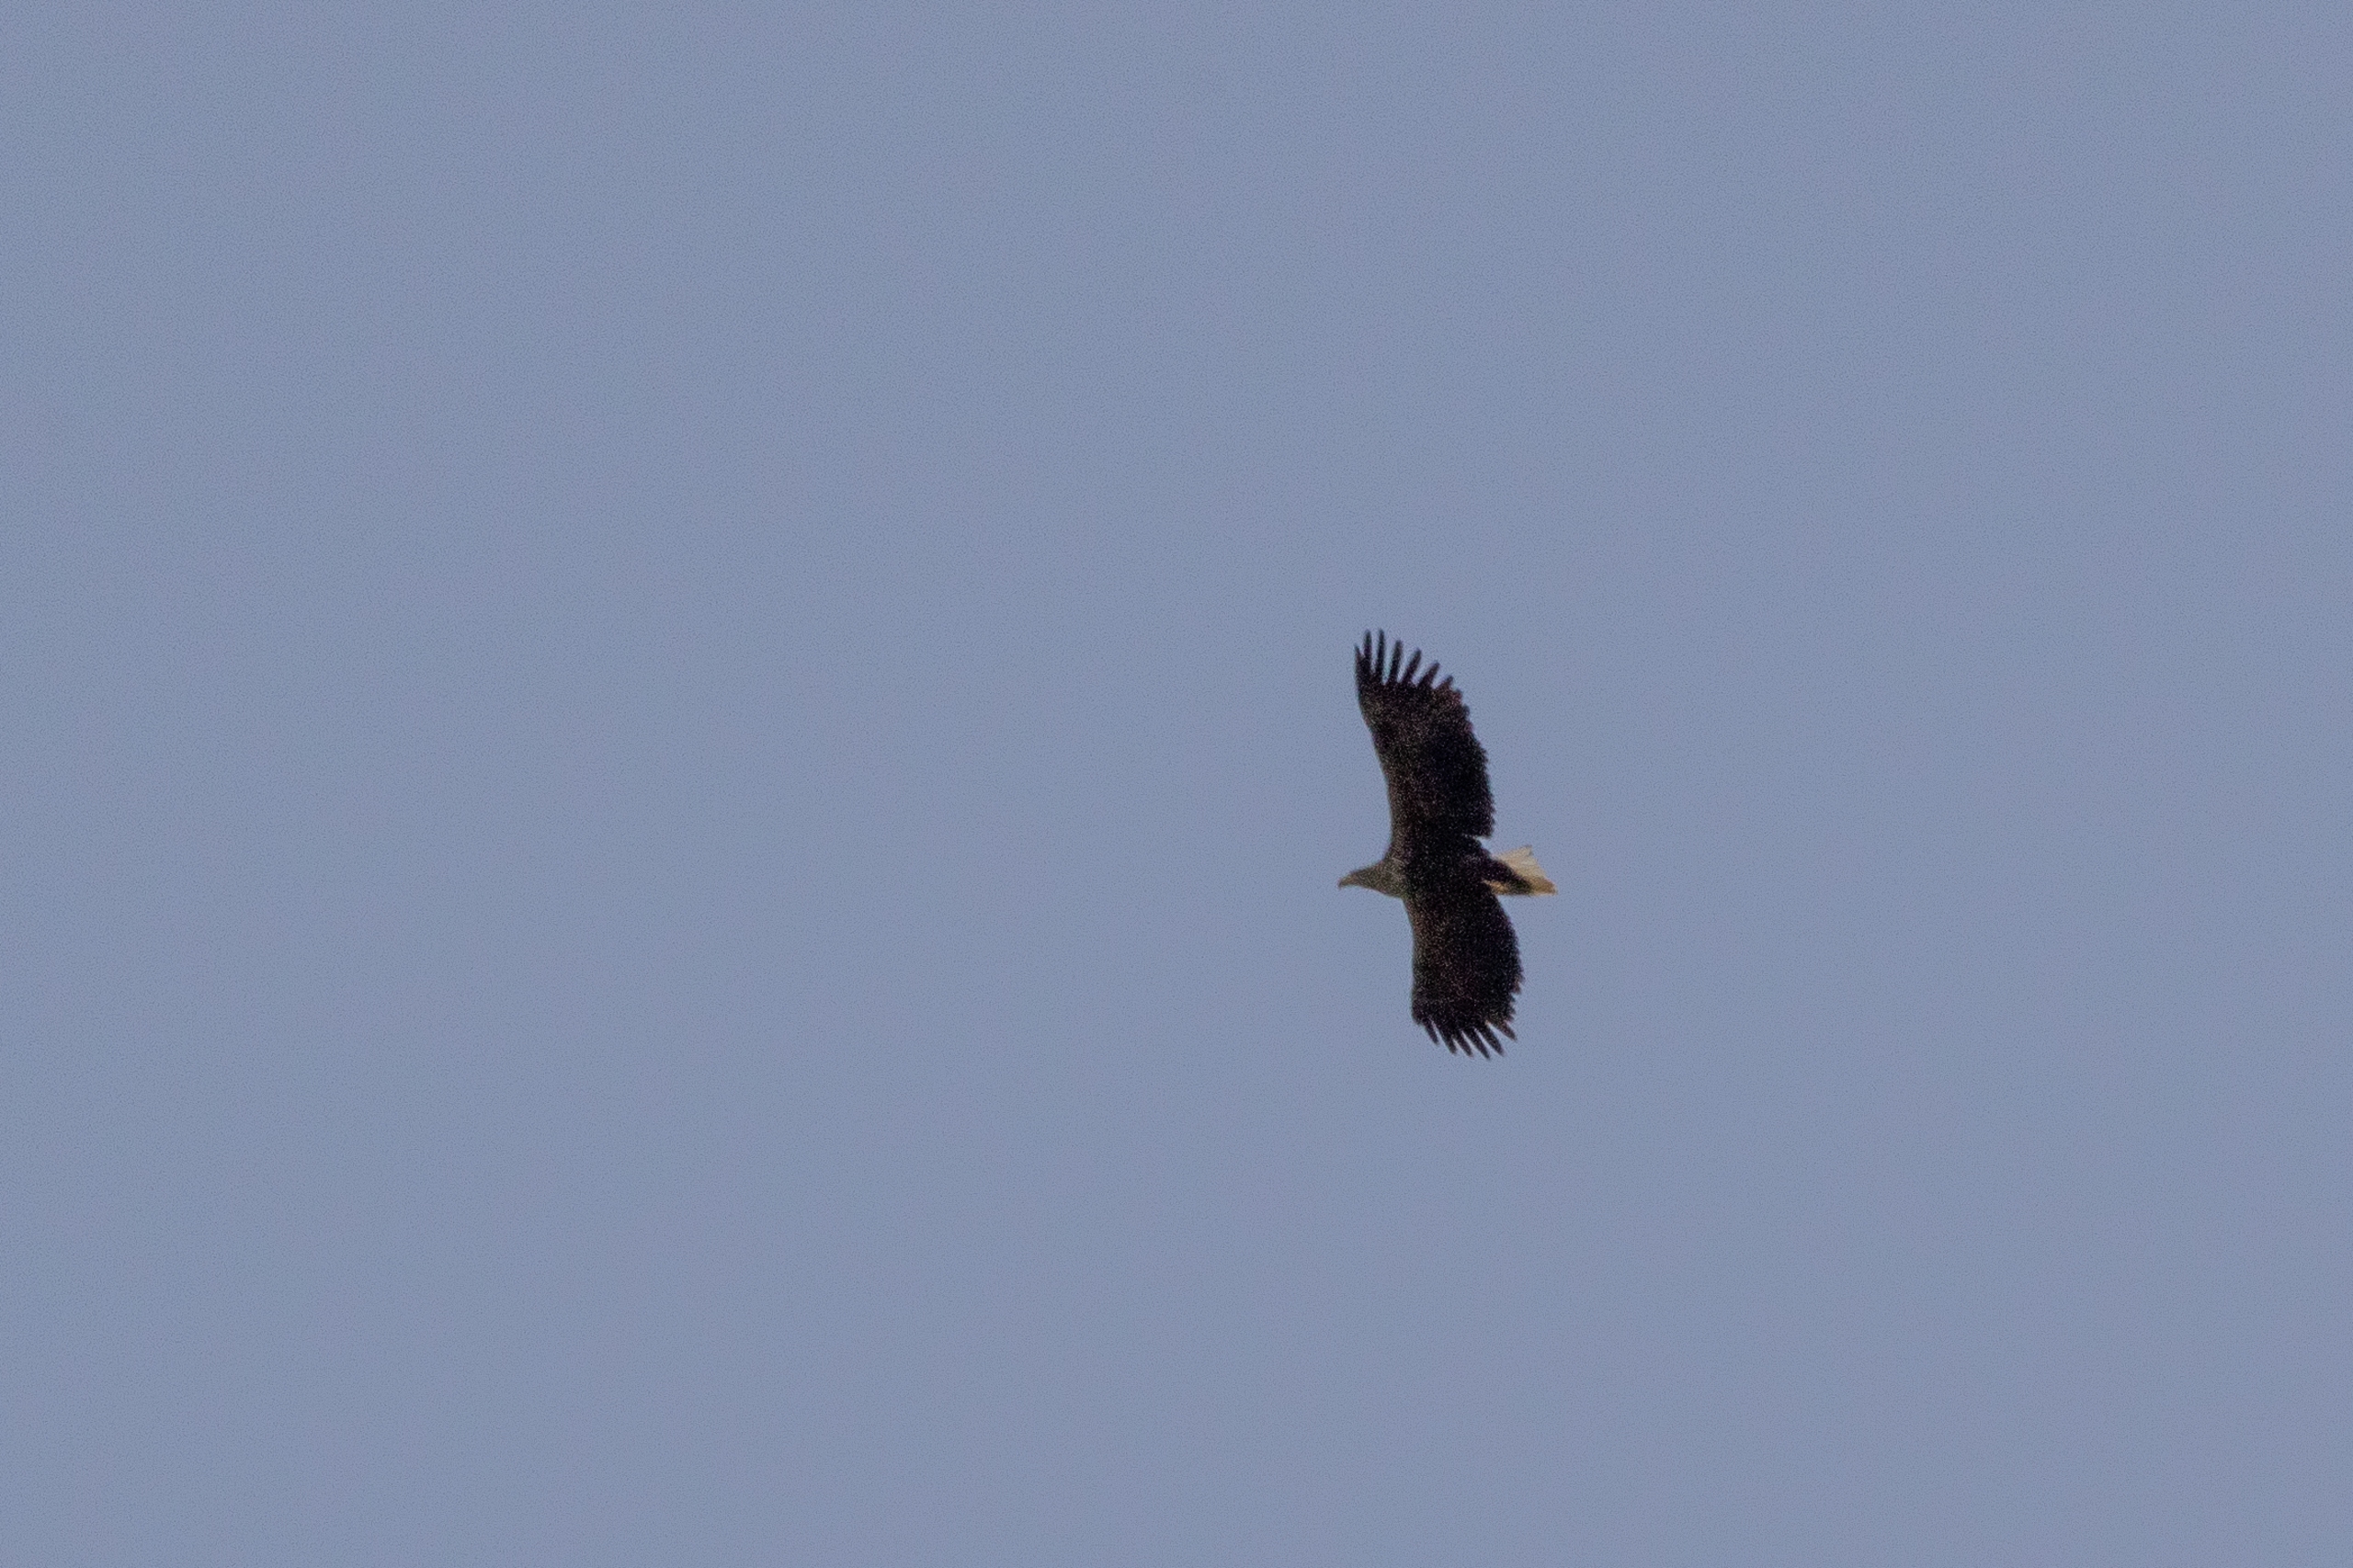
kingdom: Animalia
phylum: Chordata
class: Aves
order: Accipitriformes
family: Accipitridae
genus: Haliaeetus
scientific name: Haliaeetus albicilla
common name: Havørn
